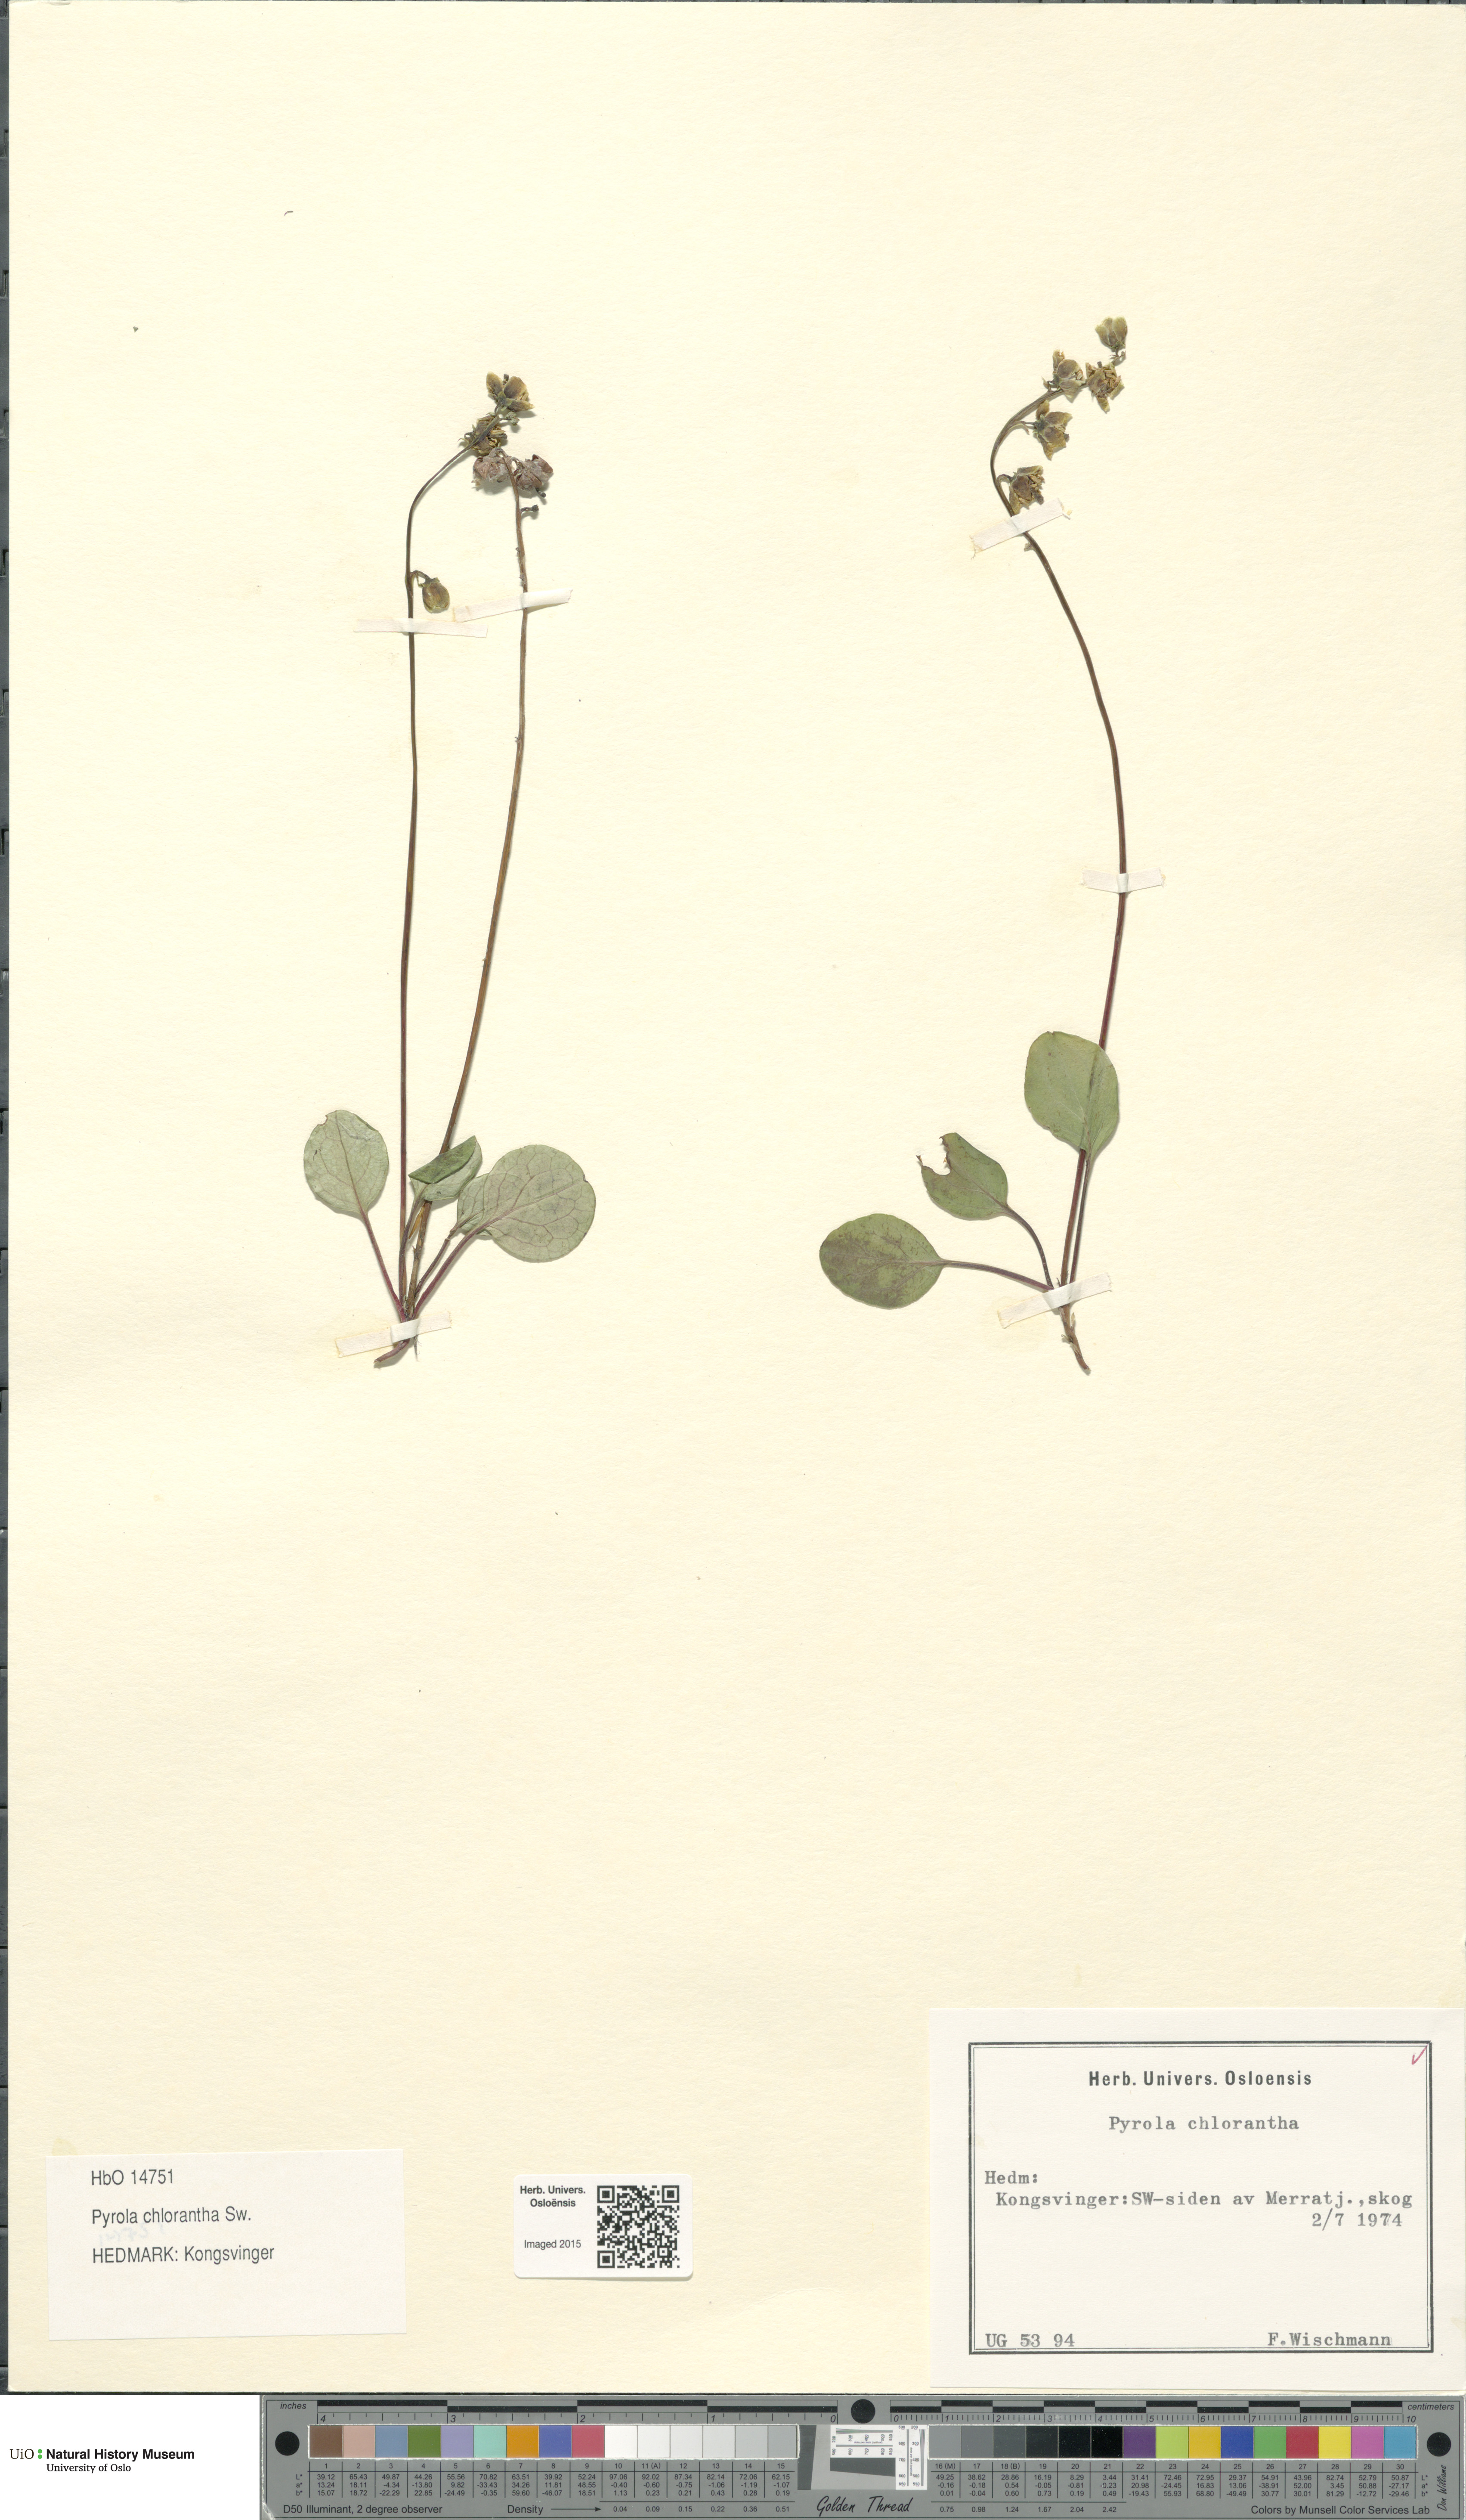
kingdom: Plantae
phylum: Tracheophyta
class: Magnoliopsida
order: Ericales
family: Ericaceae
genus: Pyrola
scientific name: Pyrola chlorantha
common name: Green wintergreen
